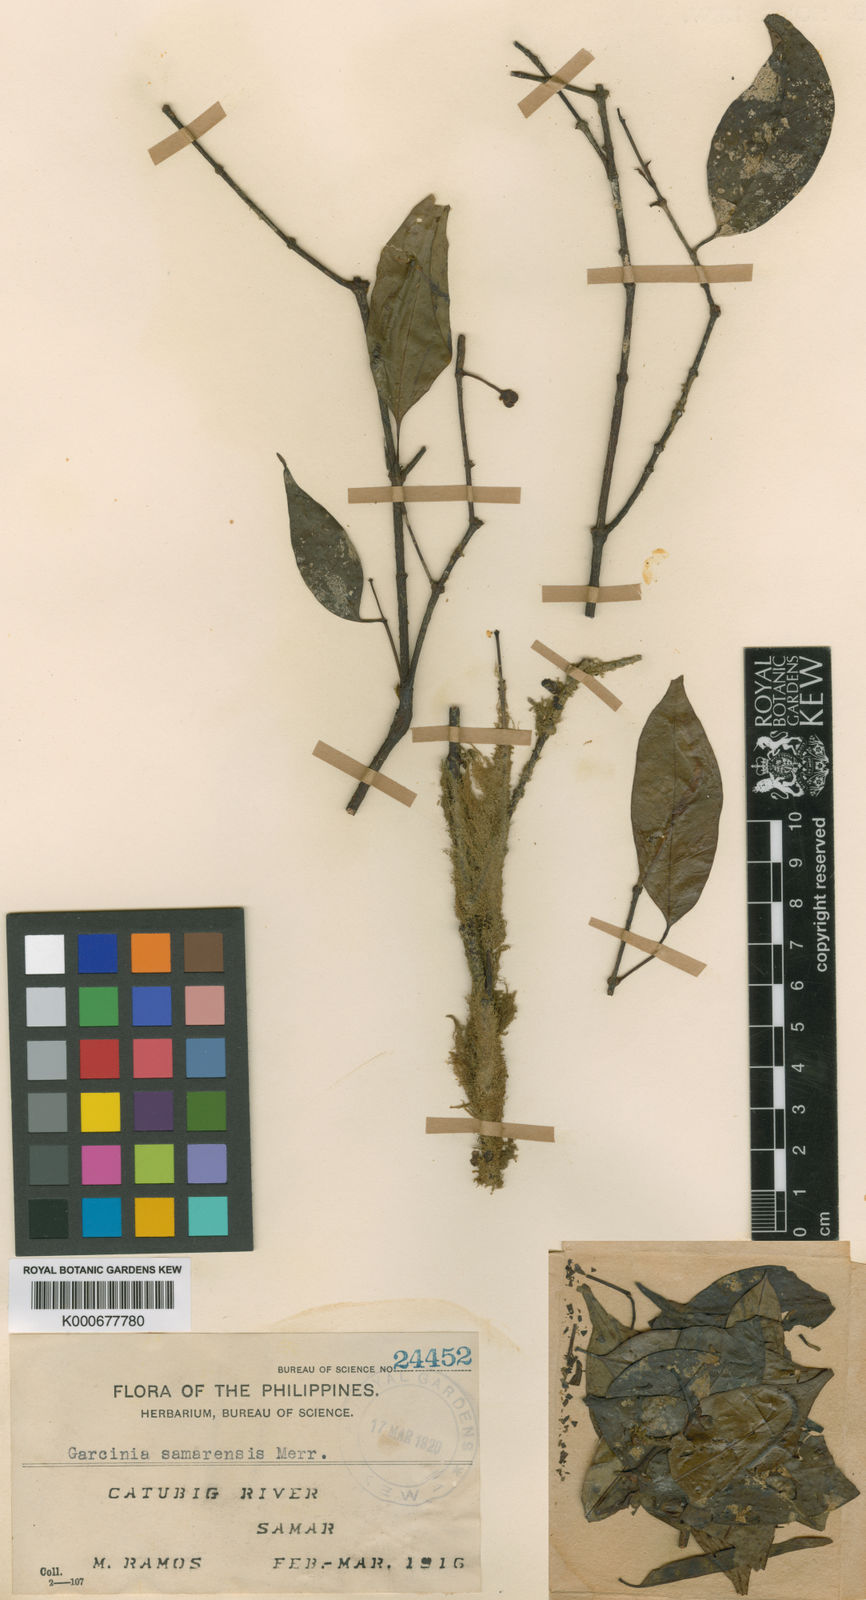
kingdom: Plantae
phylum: Tracheophyta
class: Magnoliopsida
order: Malpighiales
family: Clusiaceae
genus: Garcinia
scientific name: Garcinia samarensis
